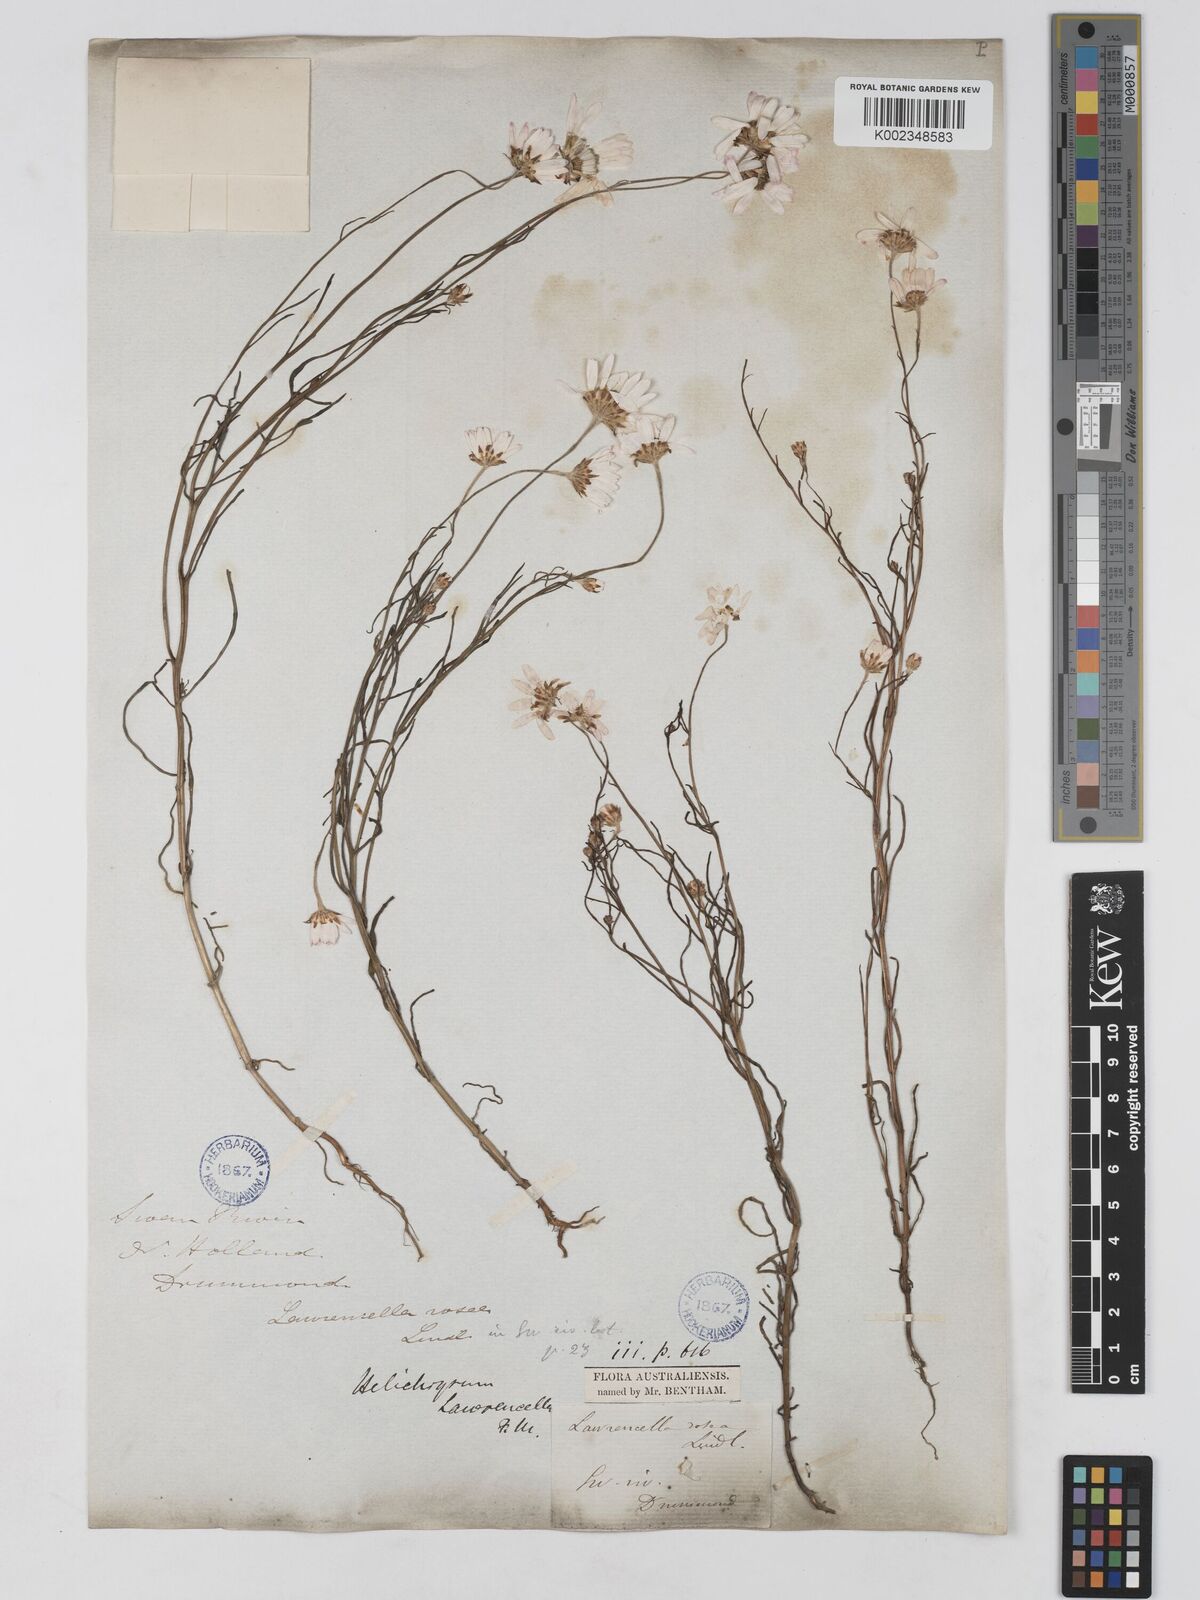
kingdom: Plantae
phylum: Tracheophyta
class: Magnoliopsida
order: Asterales
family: Asteraceae
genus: Lawrencella
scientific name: Lawrencella rosea
